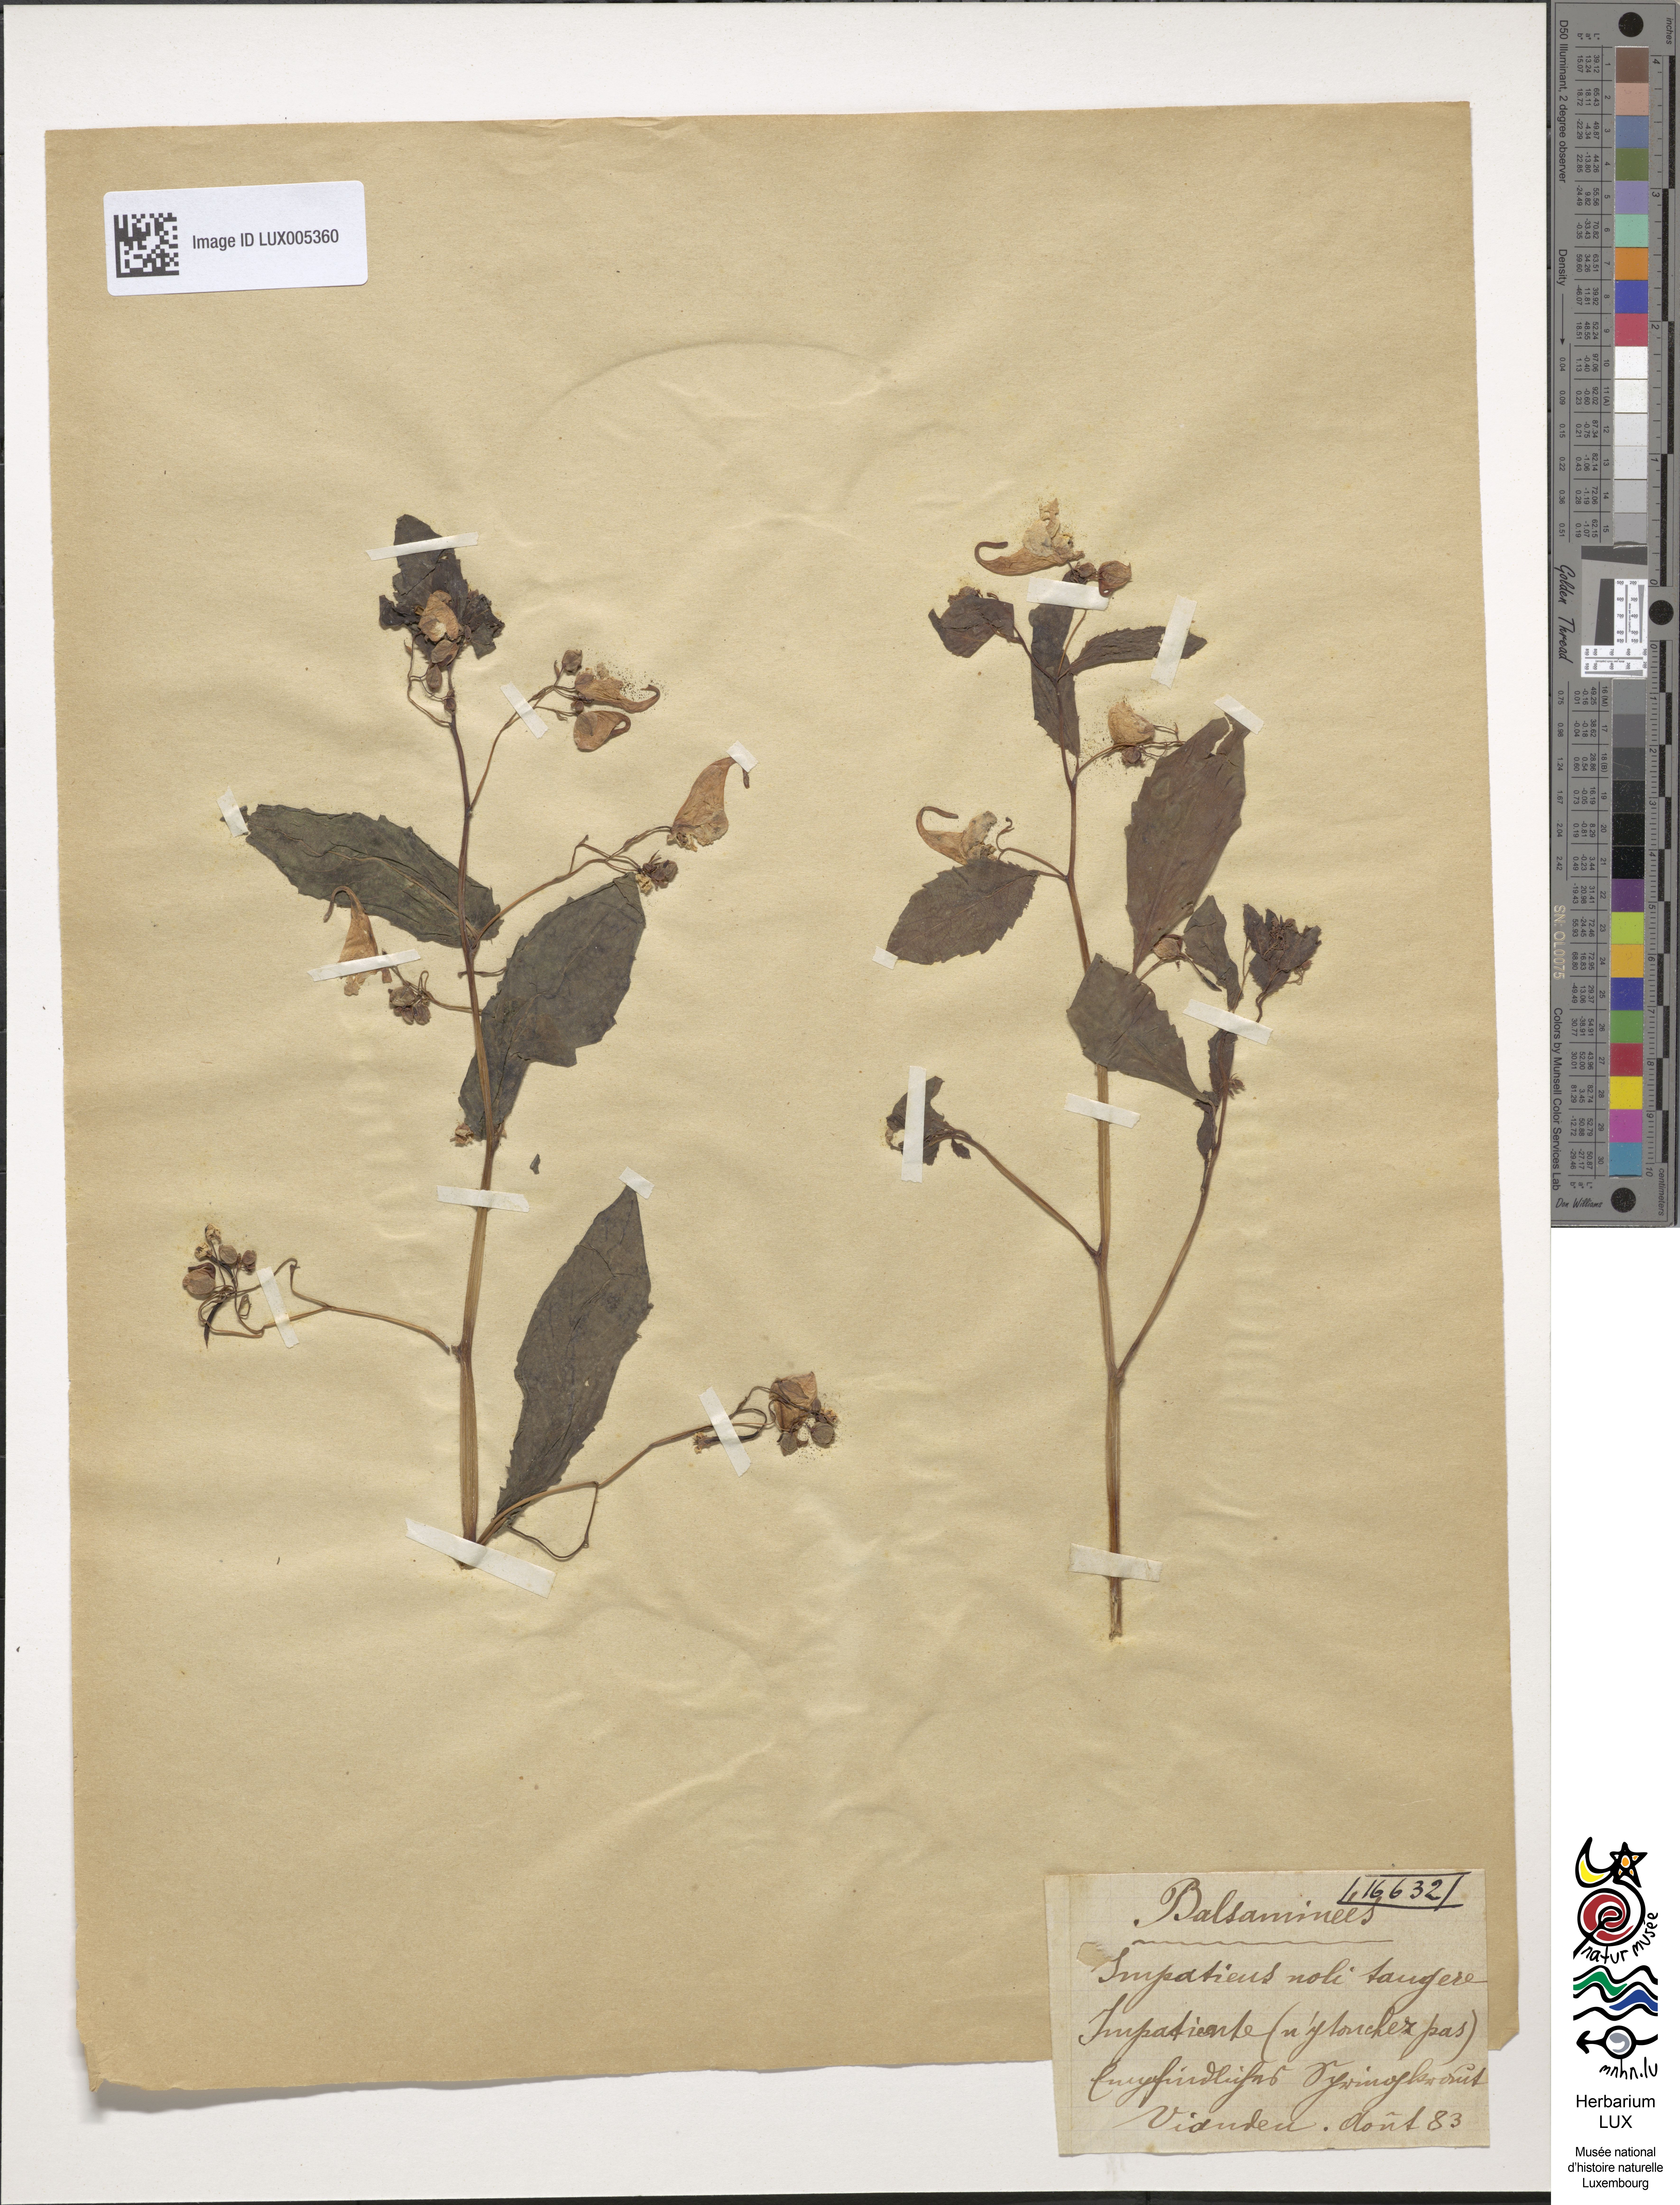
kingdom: Plantae
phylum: Tracheophyta
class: Magnoliopsida
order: Ericales
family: Balsaminaceae
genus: Impatiens
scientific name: Impatiens noli-tangere
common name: Touch-me-not balsam
